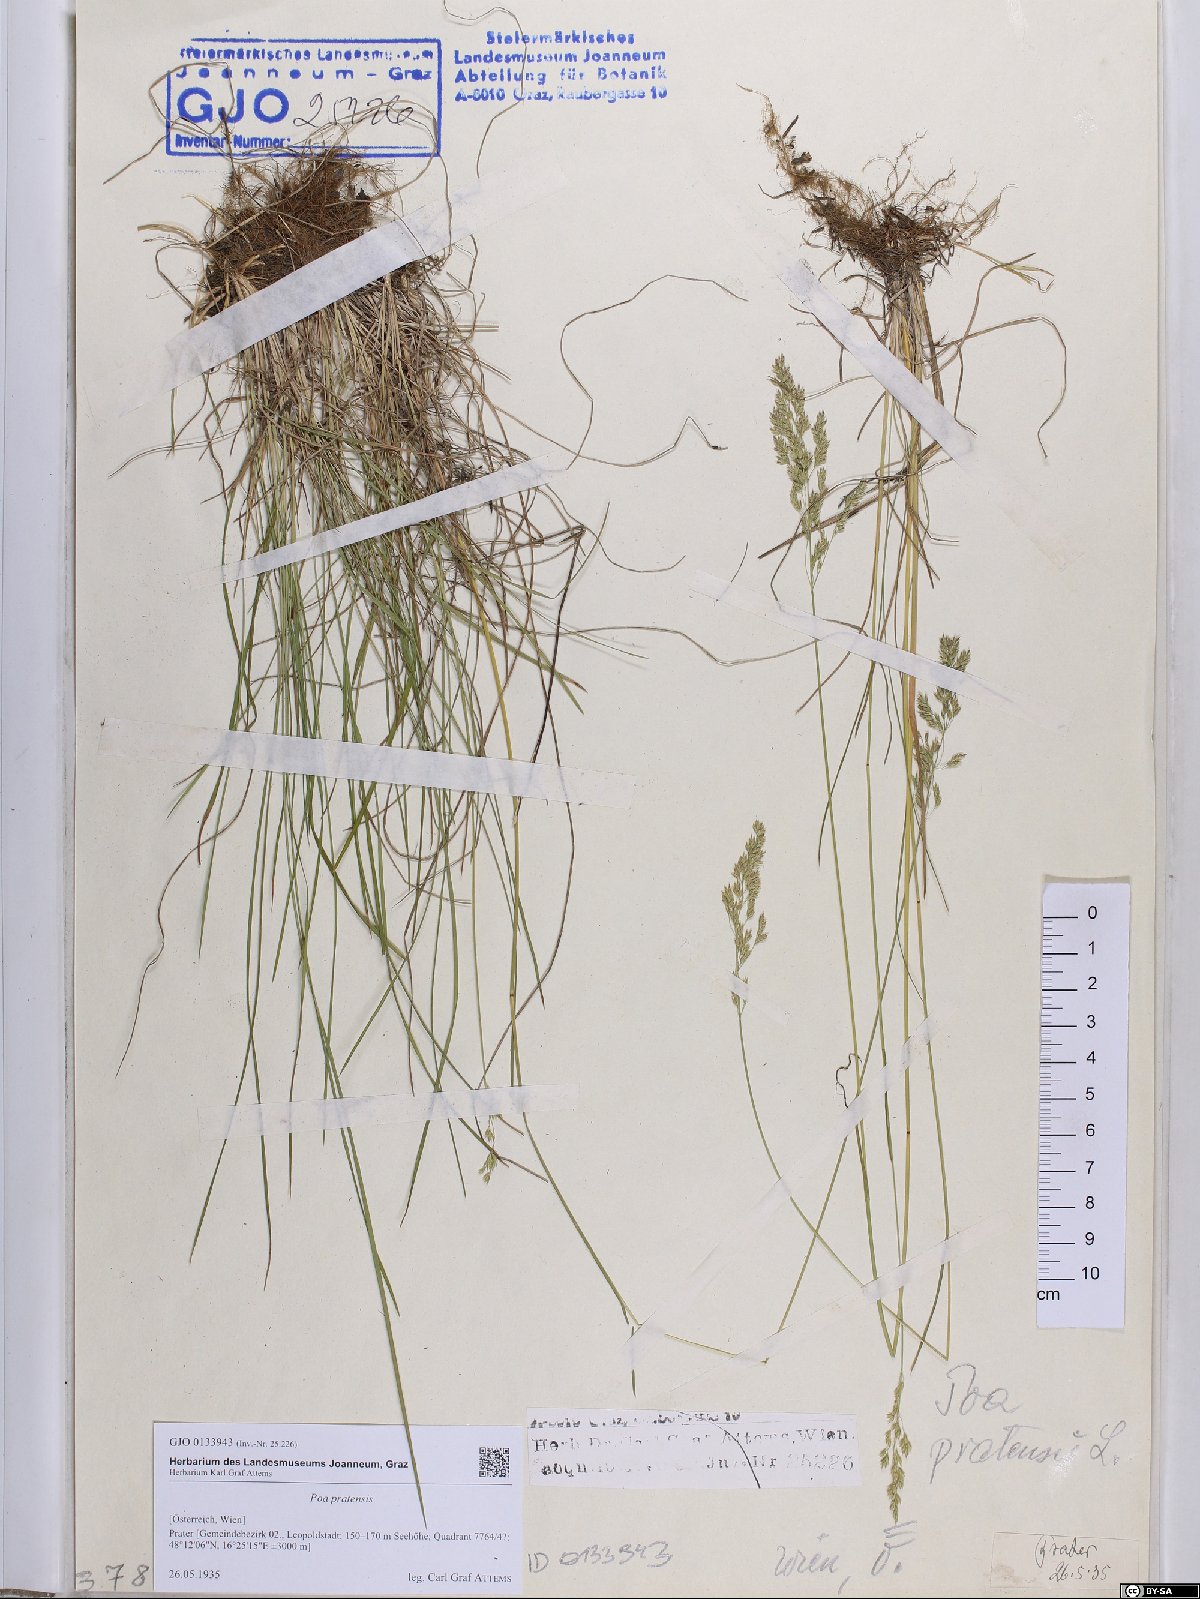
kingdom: Plantae
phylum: Tracheophyta
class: Liliopsida
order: Poales
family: Poaceae
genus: Poa
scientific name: Poa pratensis
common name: Kentucky bluegrass
